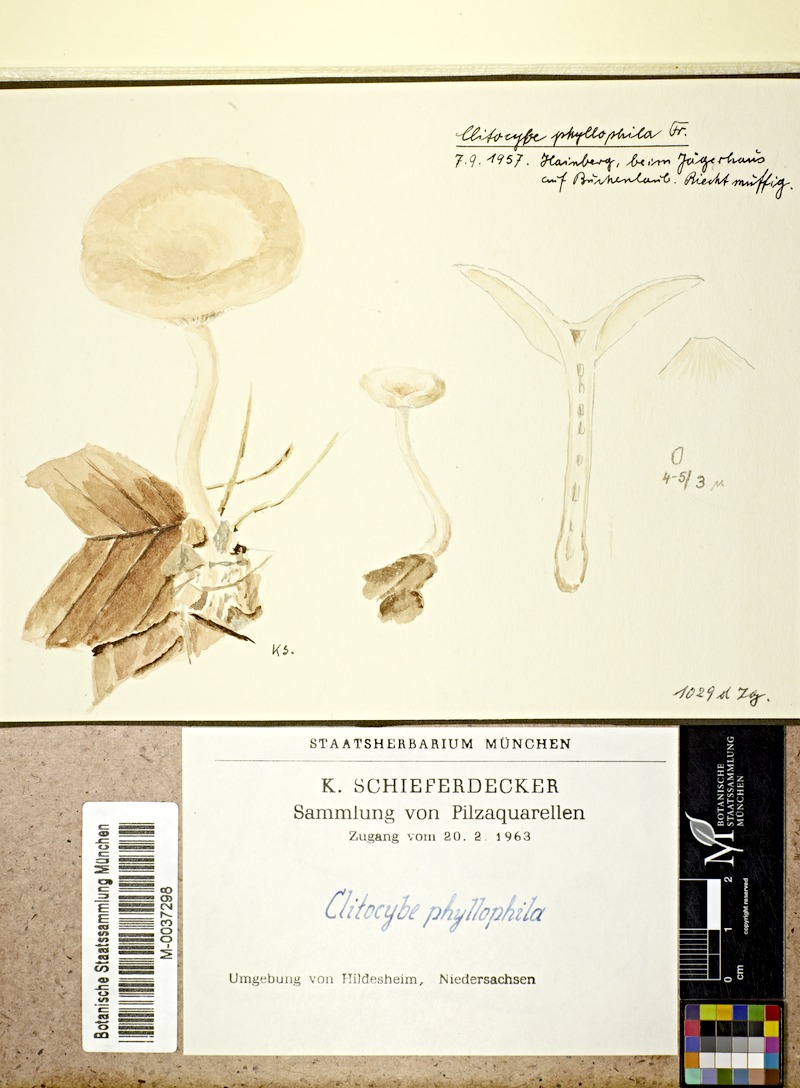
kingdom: Fungi
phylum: Basidiomycota
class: Agaricomycetes
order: Agaricales
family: Tricholomataceae
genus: Clitocybe
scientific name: Clitocybe phyllophila
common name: Frosty funnel
